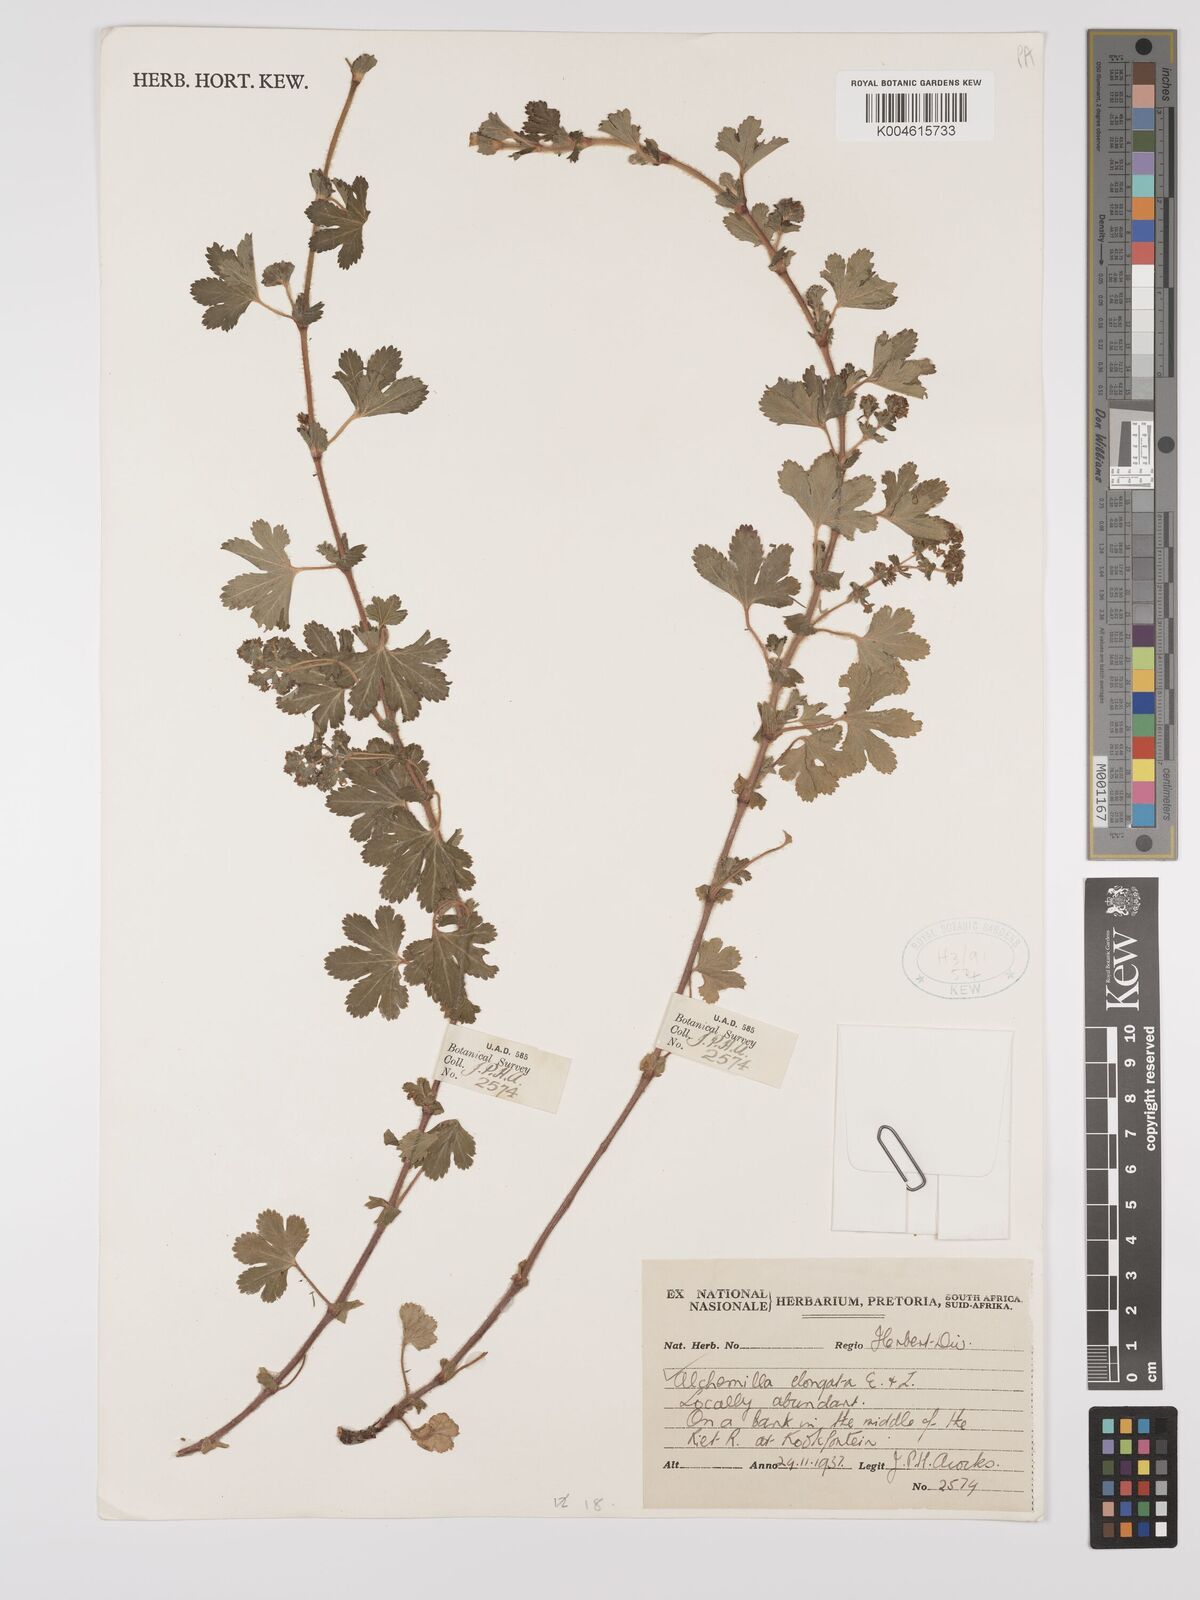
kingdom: Plantae
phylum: Tracheophyta
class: Magnoliopsida
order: Rosales
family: Rosaceae
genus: Alchemilla
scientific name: Alchemilla elongata
